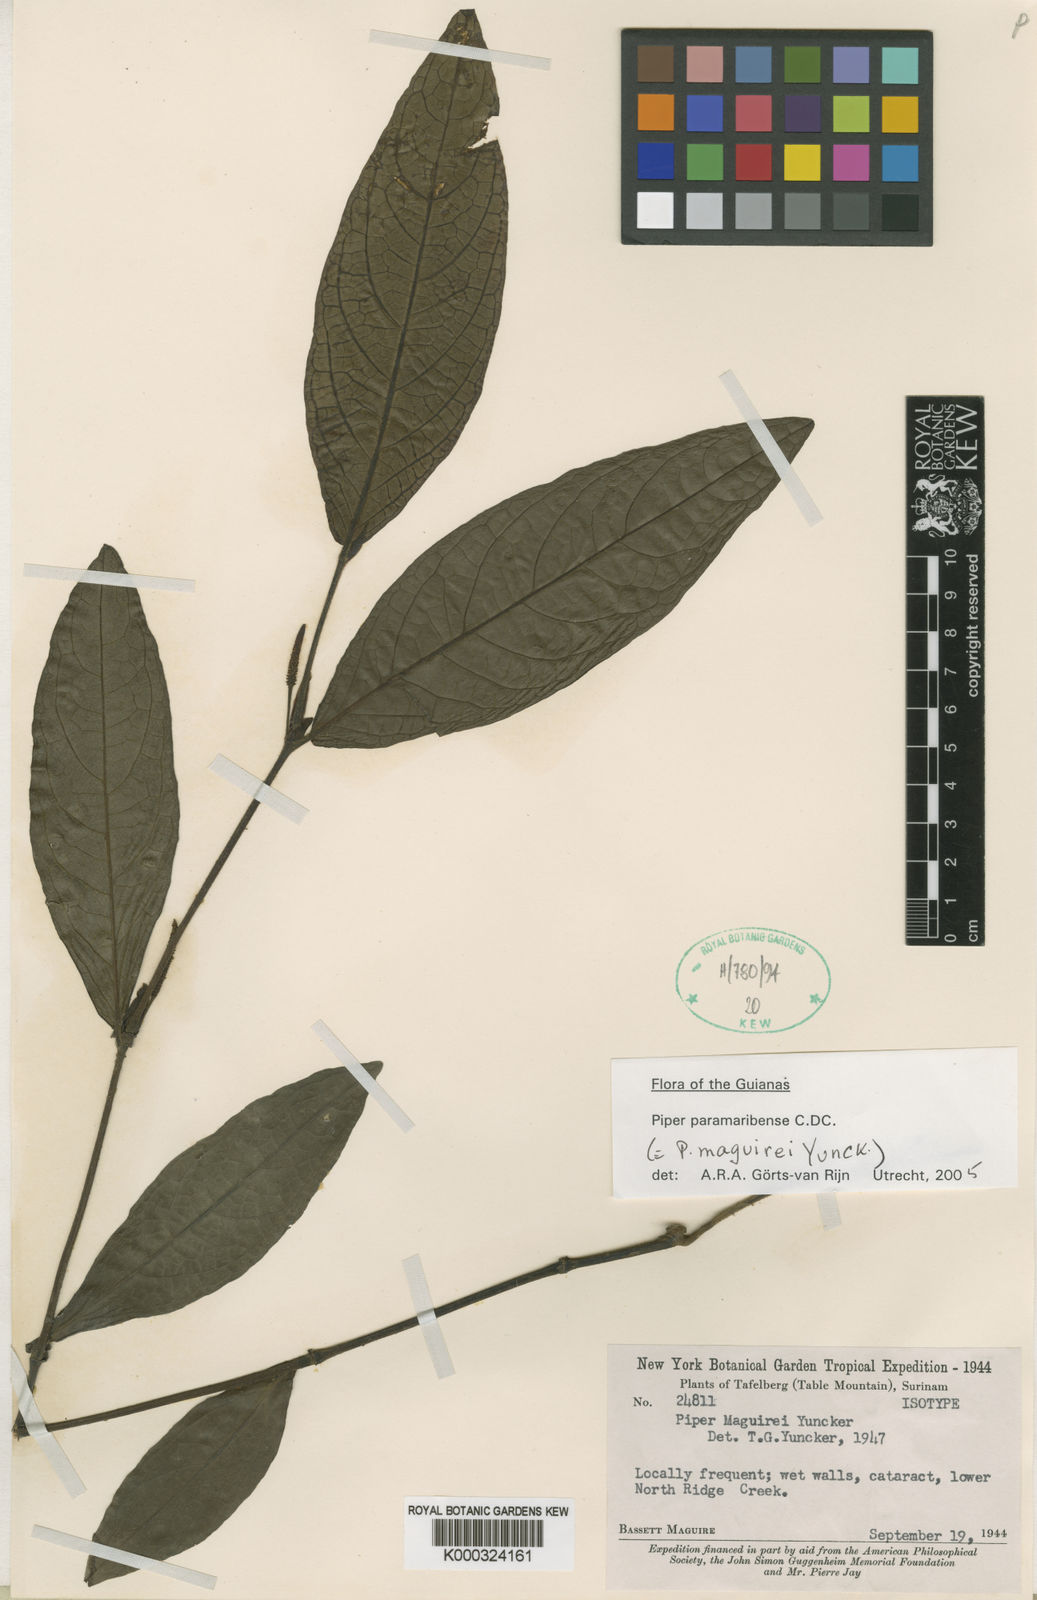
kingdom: Plantae
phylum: Tracheophyta
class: Magnoliopsida
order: Piperales
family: Piperaceae
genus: Piper
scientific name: Piper paramaribense
